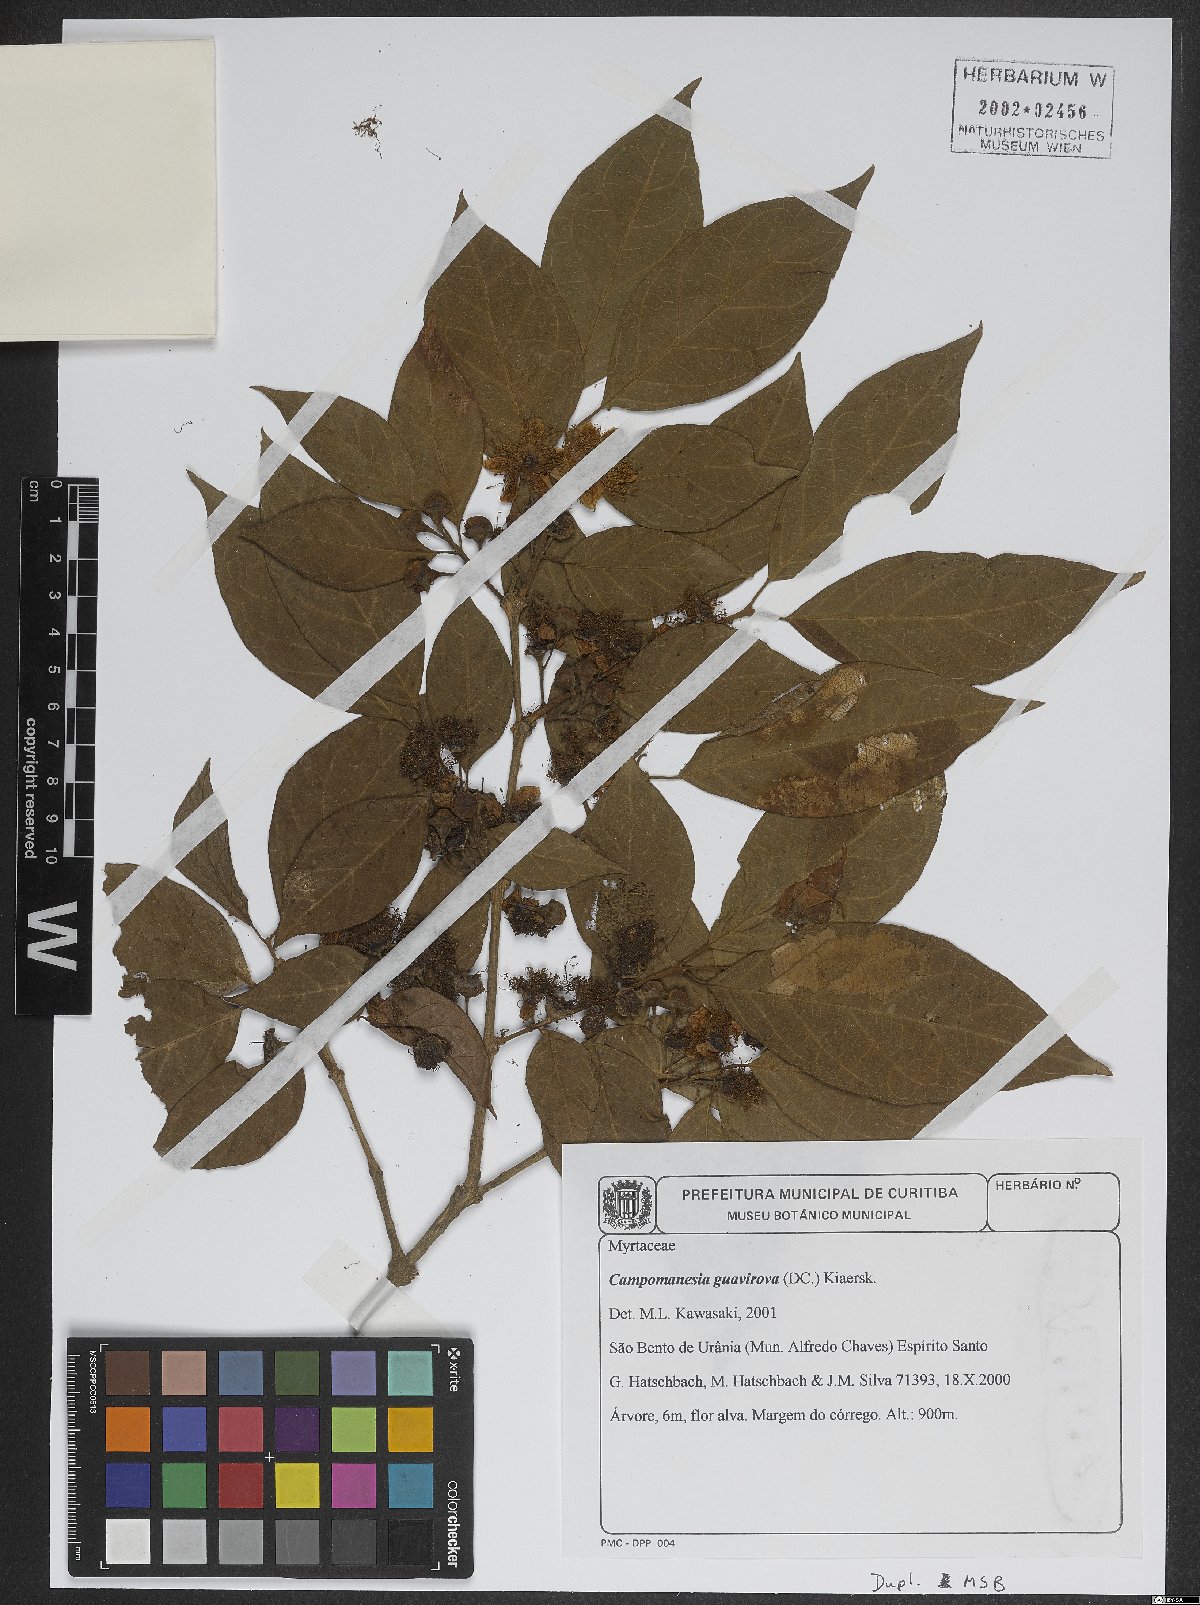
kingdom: Plantae
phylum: Tracheophyta
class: Magnoliopsida
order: Myrtales
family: Myrtaceae
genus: Campomanesia
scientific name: Campomanesia guaviroba
